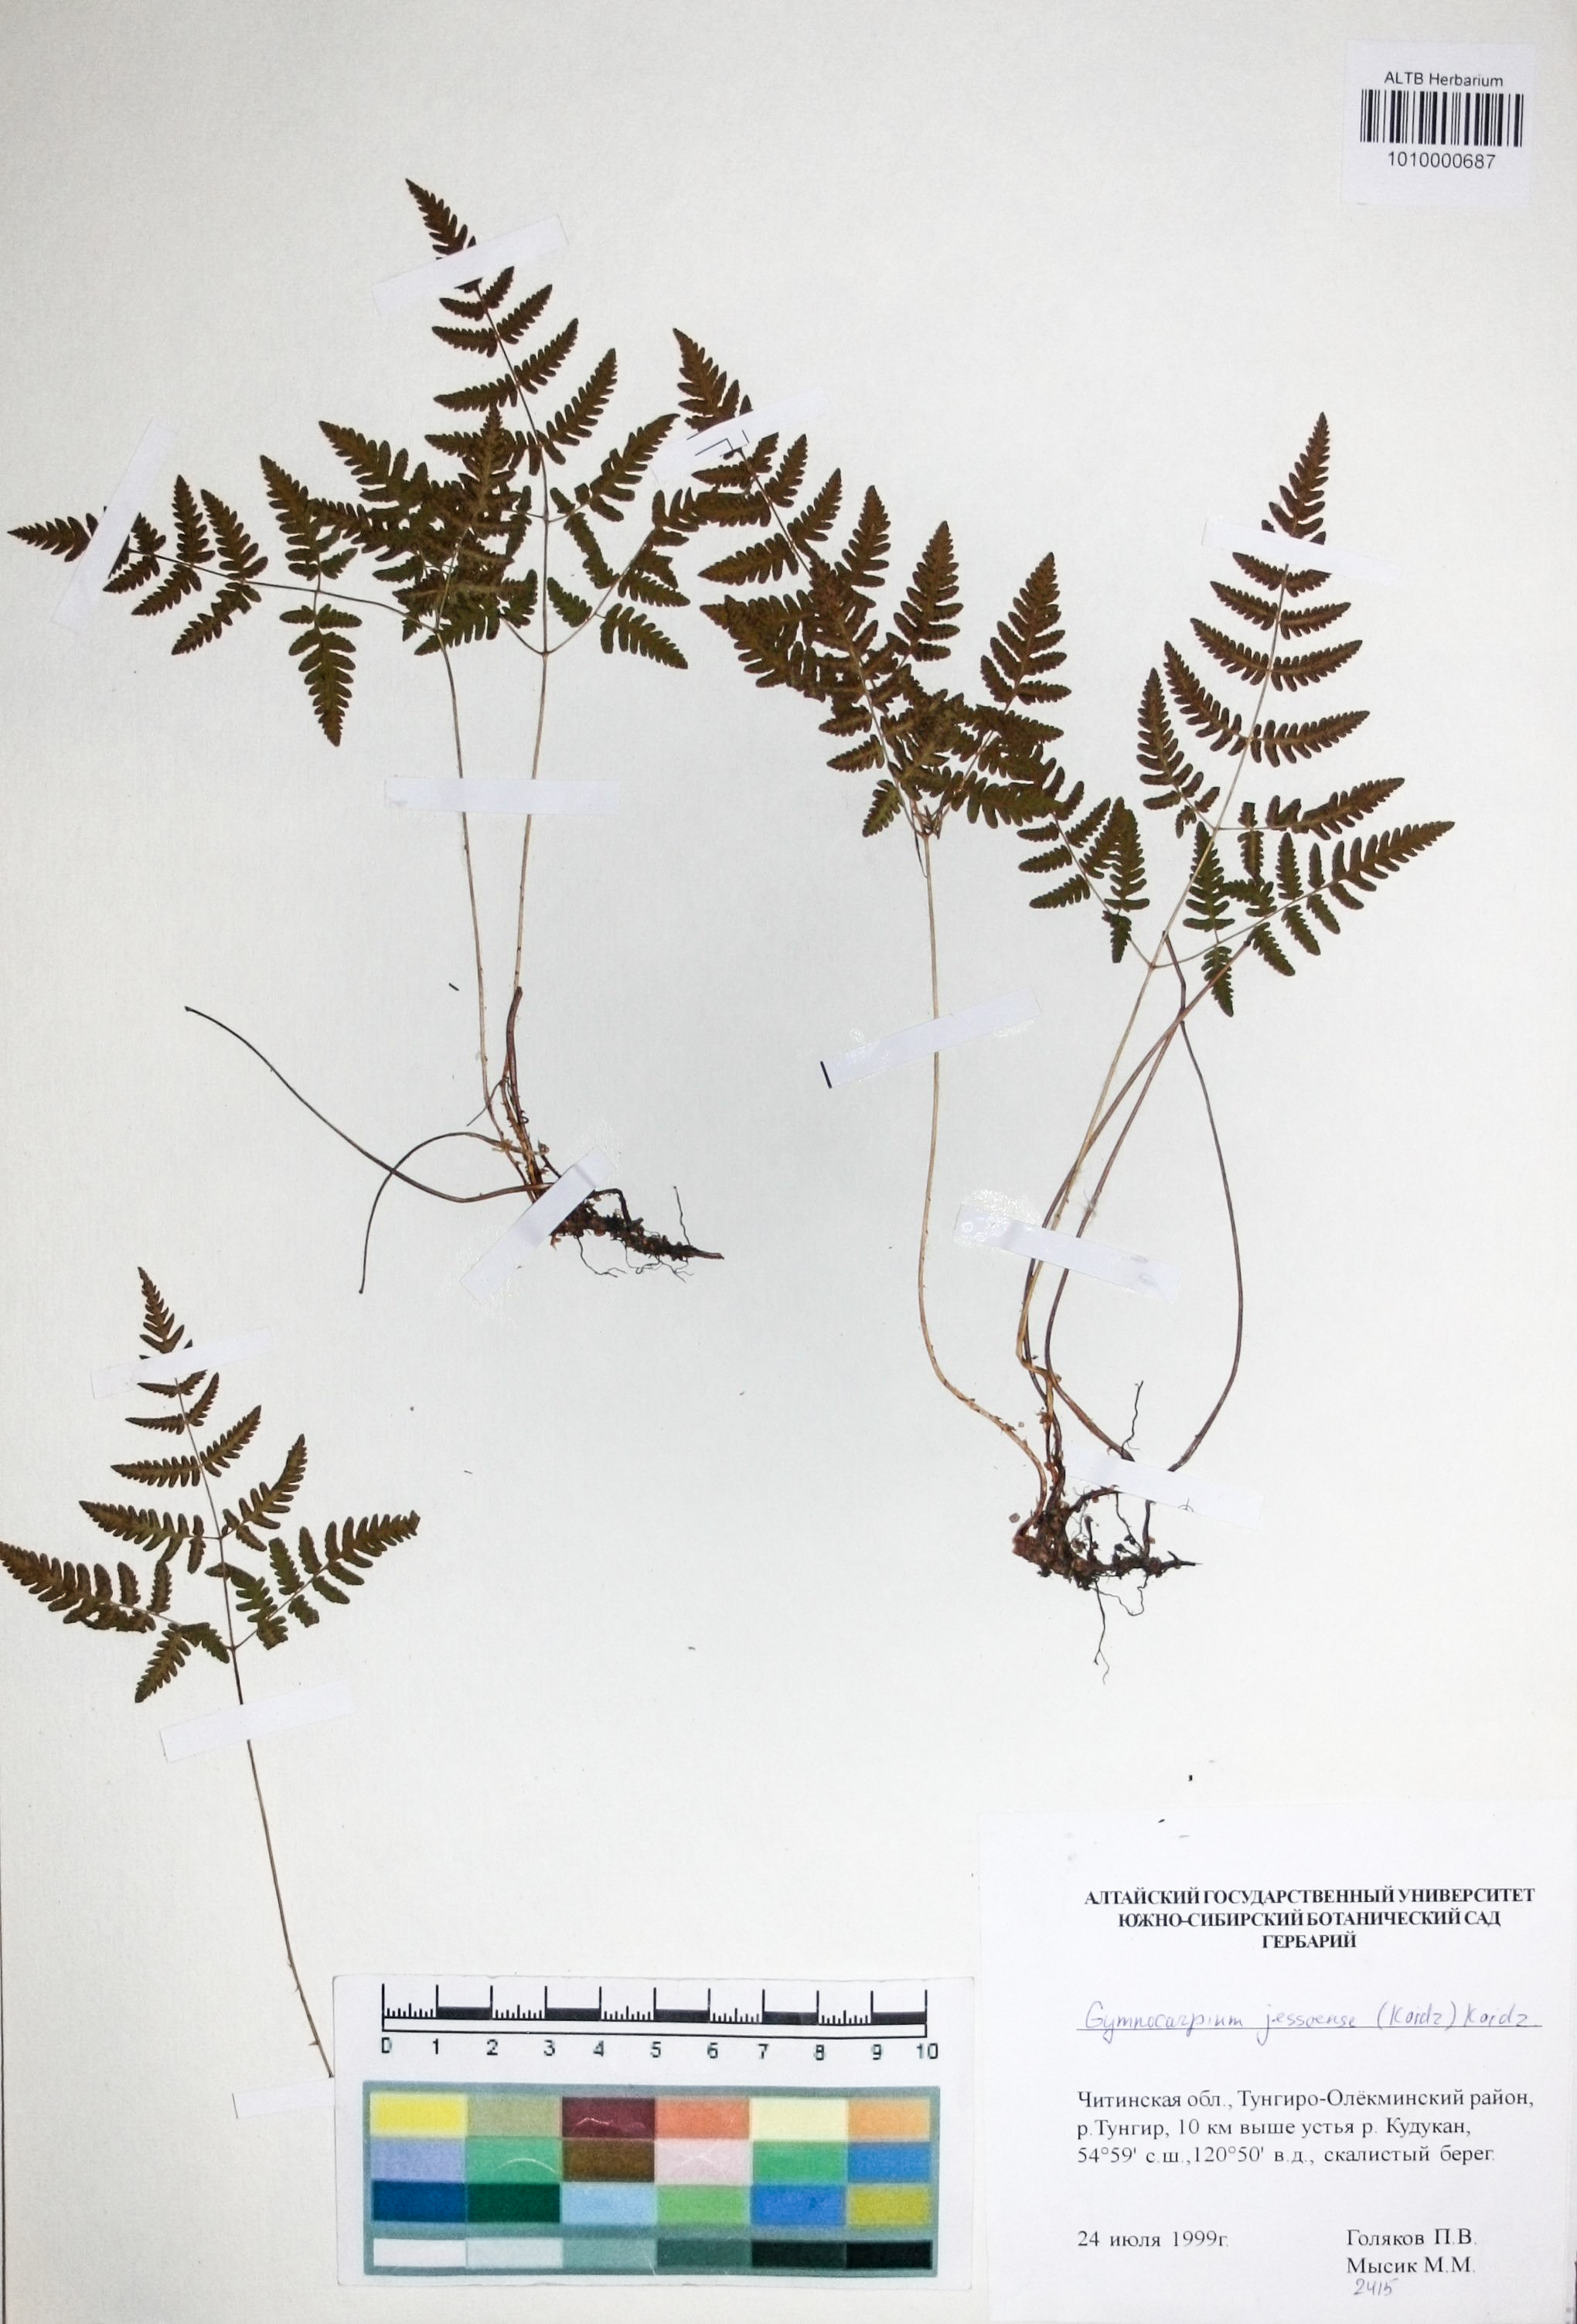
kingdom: Plantae
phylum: Tracheophyta
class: Polypodiopsida
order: Polypodiales
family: Cystopteridaceae
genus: Gymnocarpium
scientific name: Gymnocarpium jessoense
